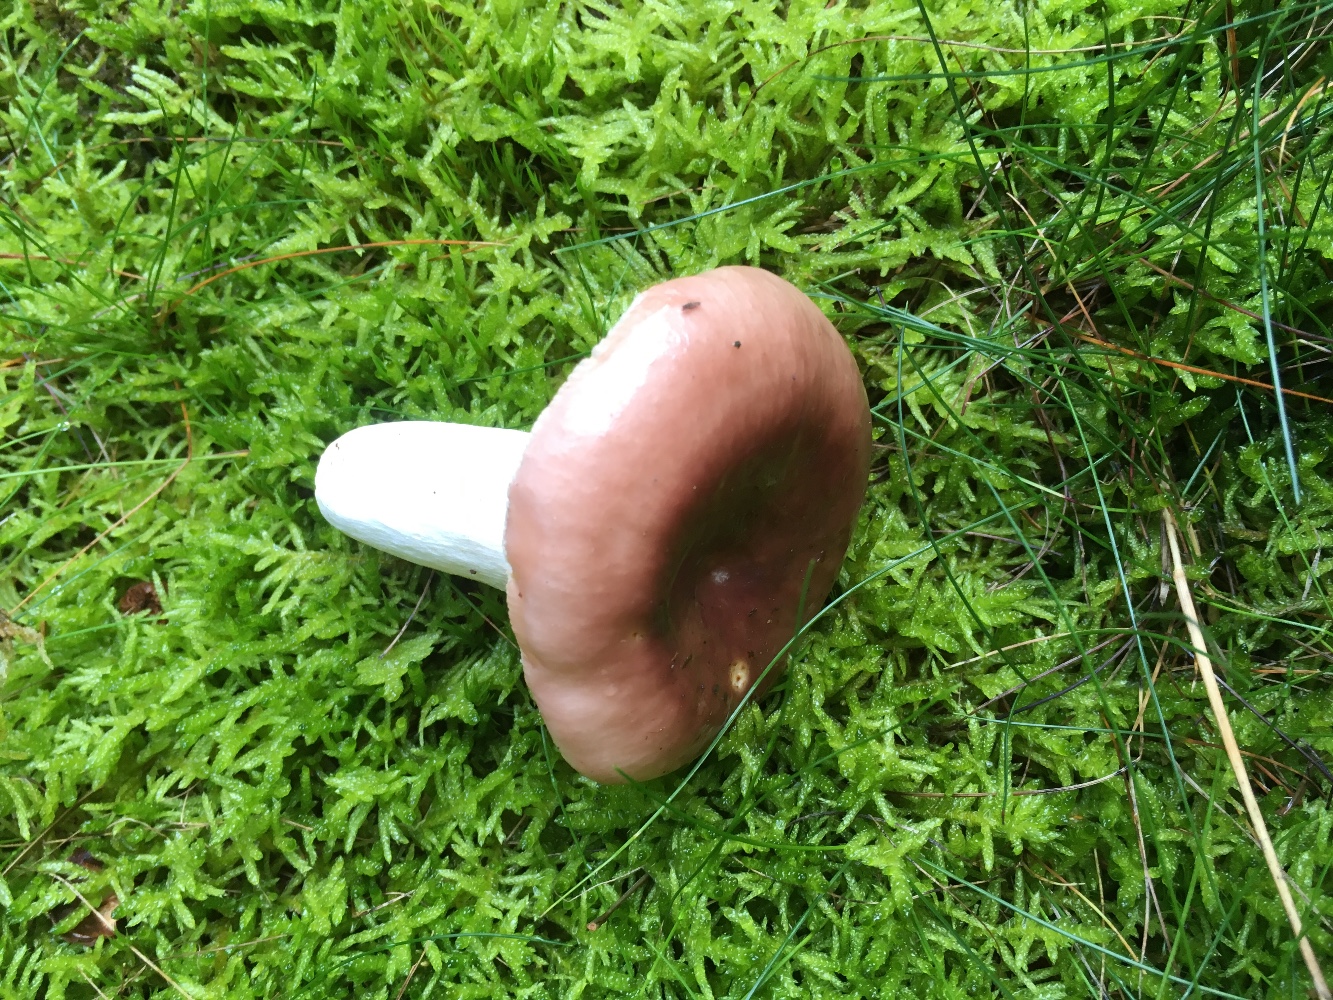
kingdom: Fungi
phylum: Basidiomycota
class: Agaricomycetes
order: Russulales
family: Russulaceae
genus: Russula
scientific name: Russula vesca
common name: spiselig skørhat
